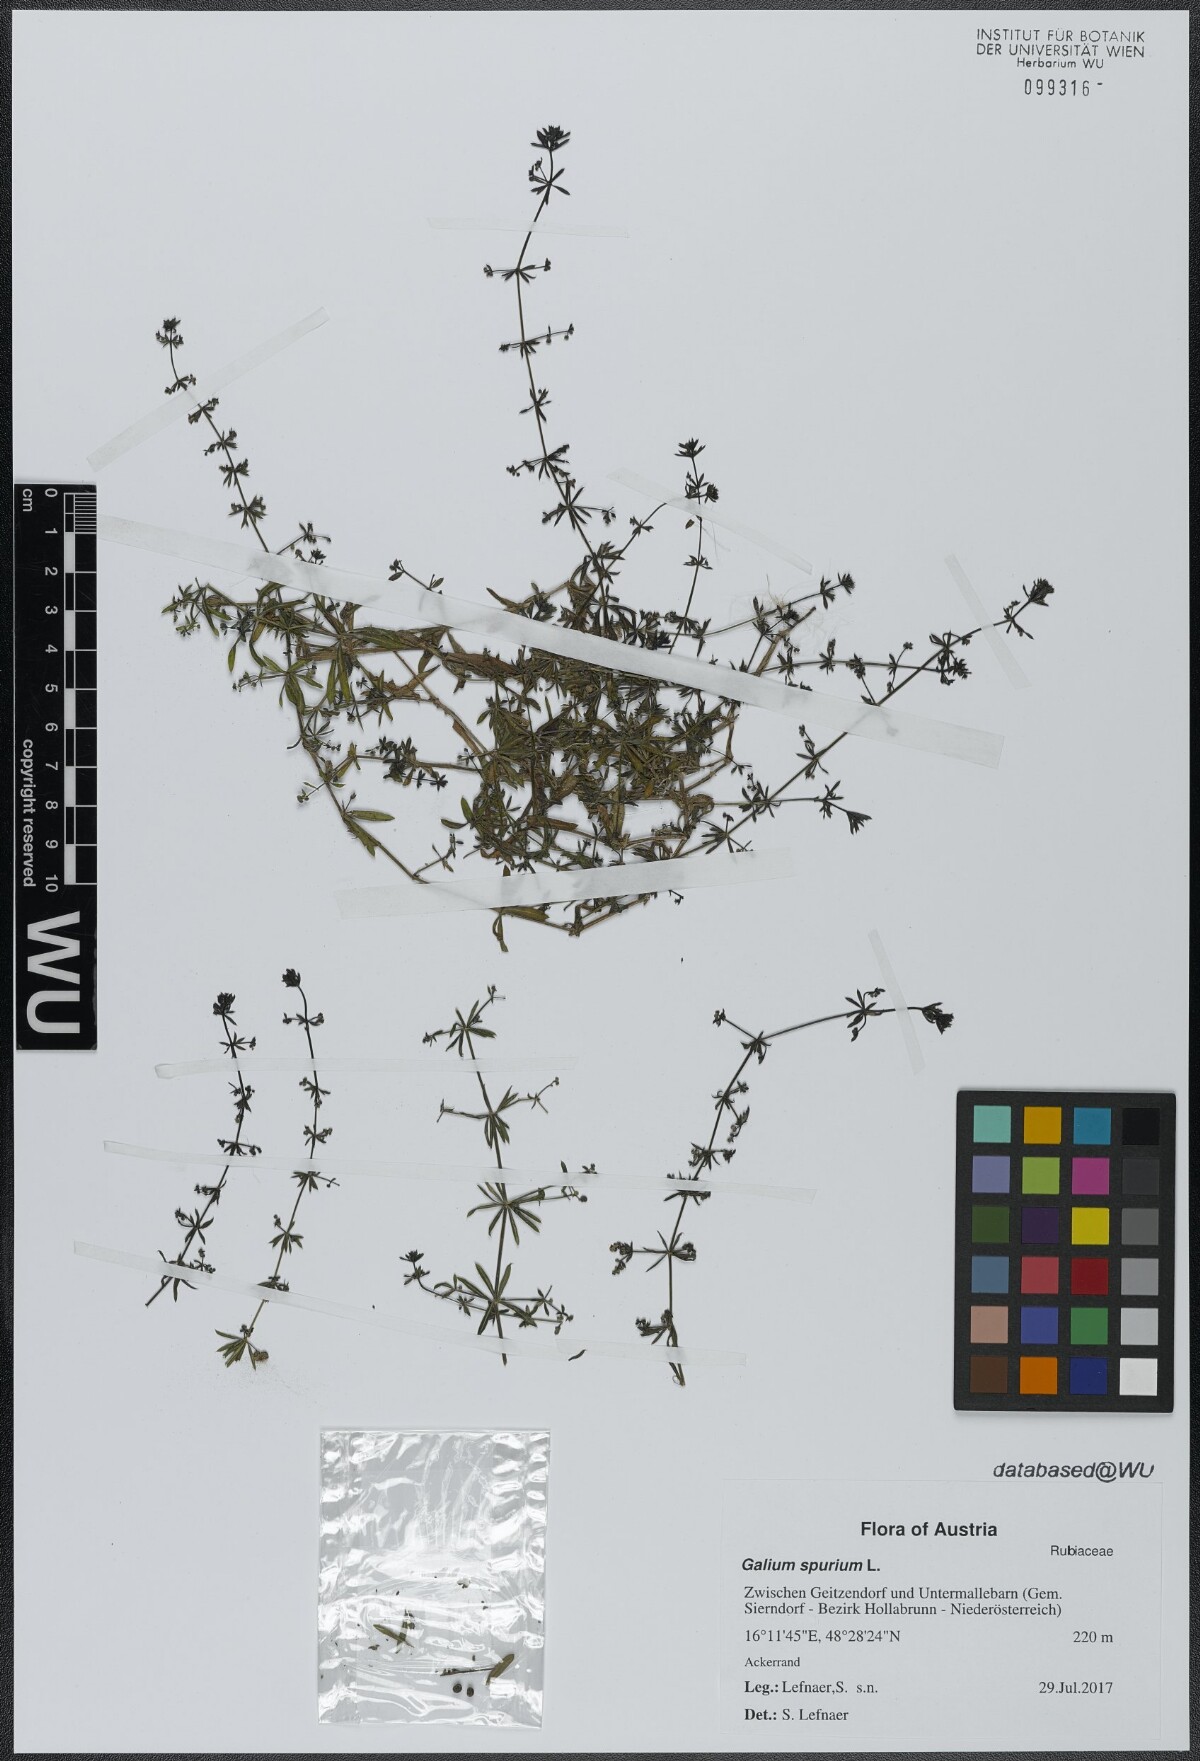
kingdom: Plantae
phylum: Tracheophyta
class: Magnoliopsida
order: Gentianales
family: Rubiaceae
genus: Galium
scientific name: Galium spurium
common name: False cleavers
